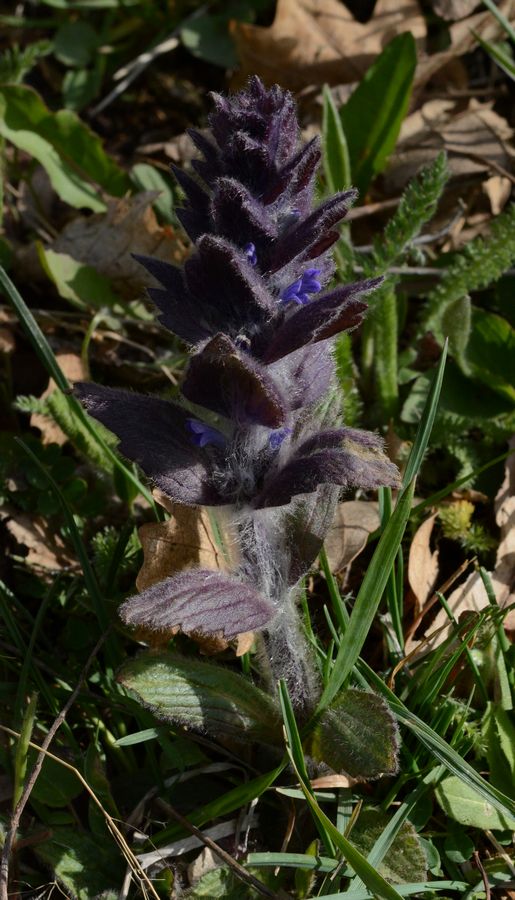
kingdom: Plantae
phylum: Tracheophyta
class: Magnoliopsida
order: Lamiales
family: Lamiaceae
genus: Ajuga
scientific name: Ajuga orientalis
